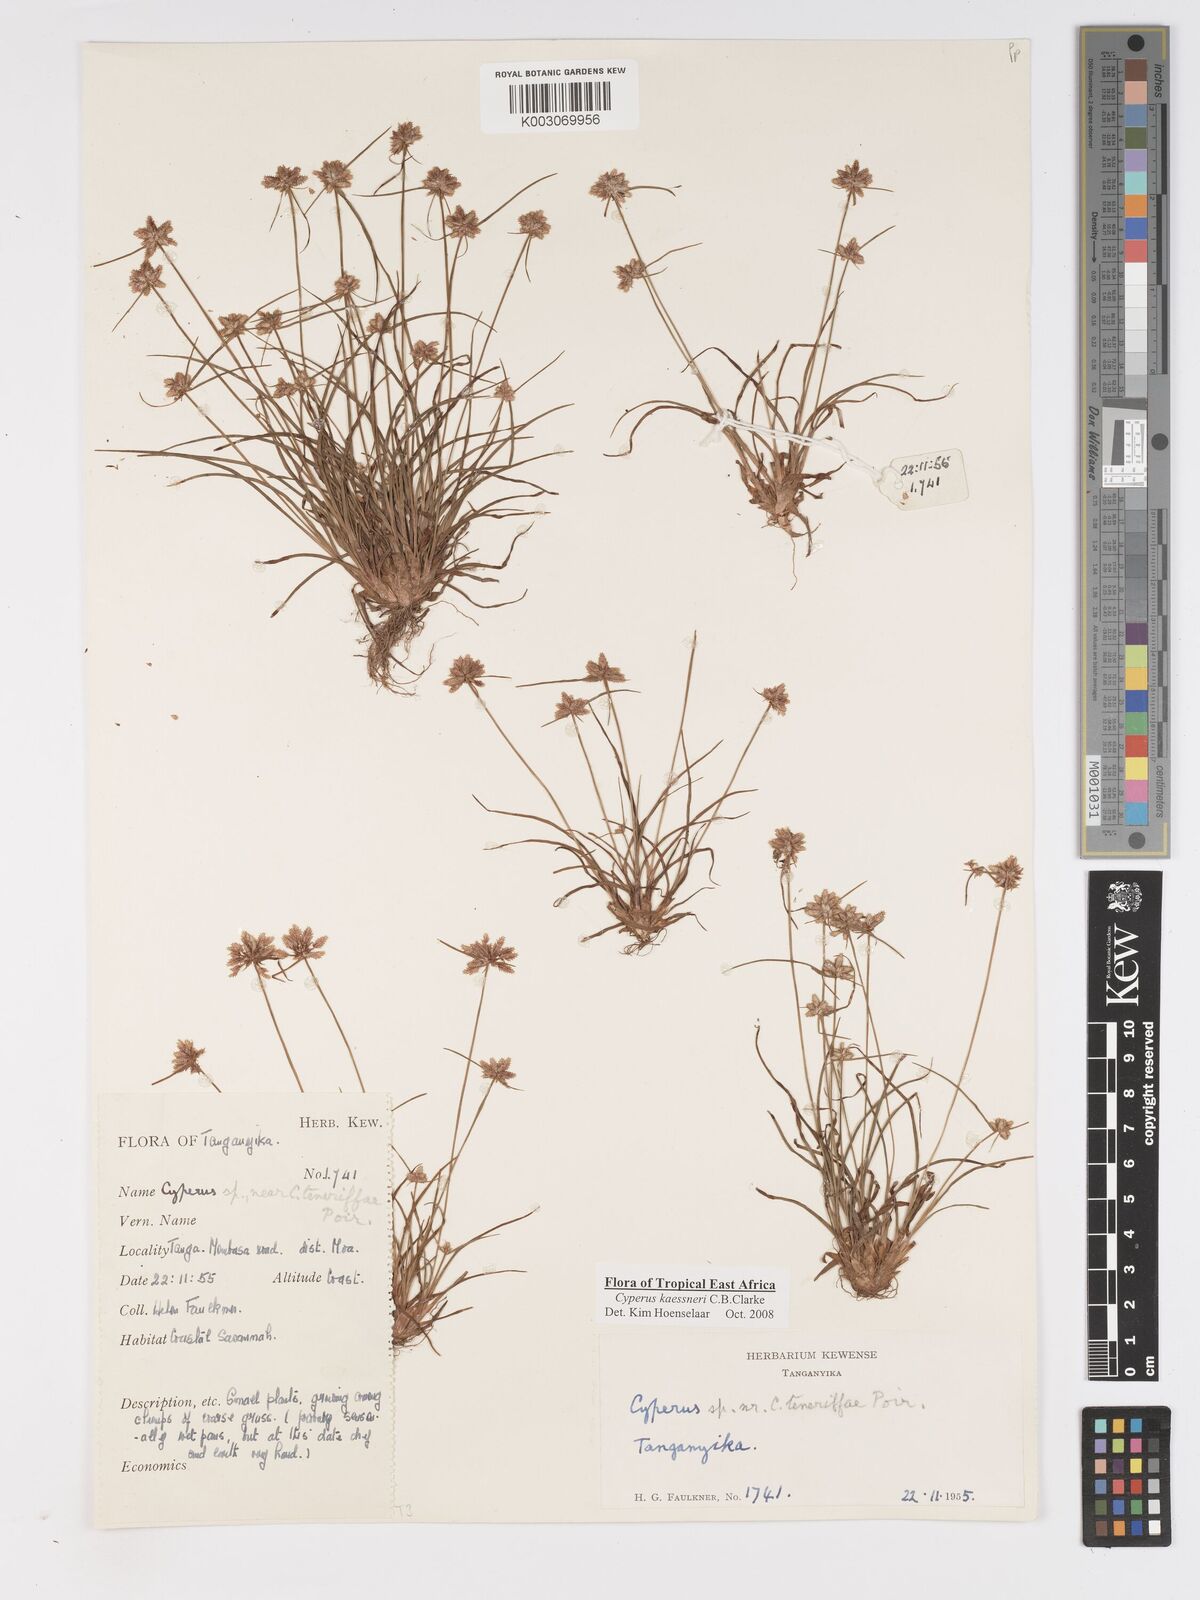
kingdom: Plantae
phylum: Tracheophyta
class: Liliopsida
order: Poales
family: Cyperaceae
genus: Cyperus
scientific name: Cyperus kaessneri
